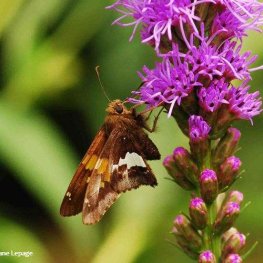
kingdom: Animalia
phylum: Arthropoda
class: Insecta
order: Lepidoptera
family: Hesperiidae
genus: Epargyreus
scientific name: Epargyreus clarus
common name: Silver-spotted Skipper
